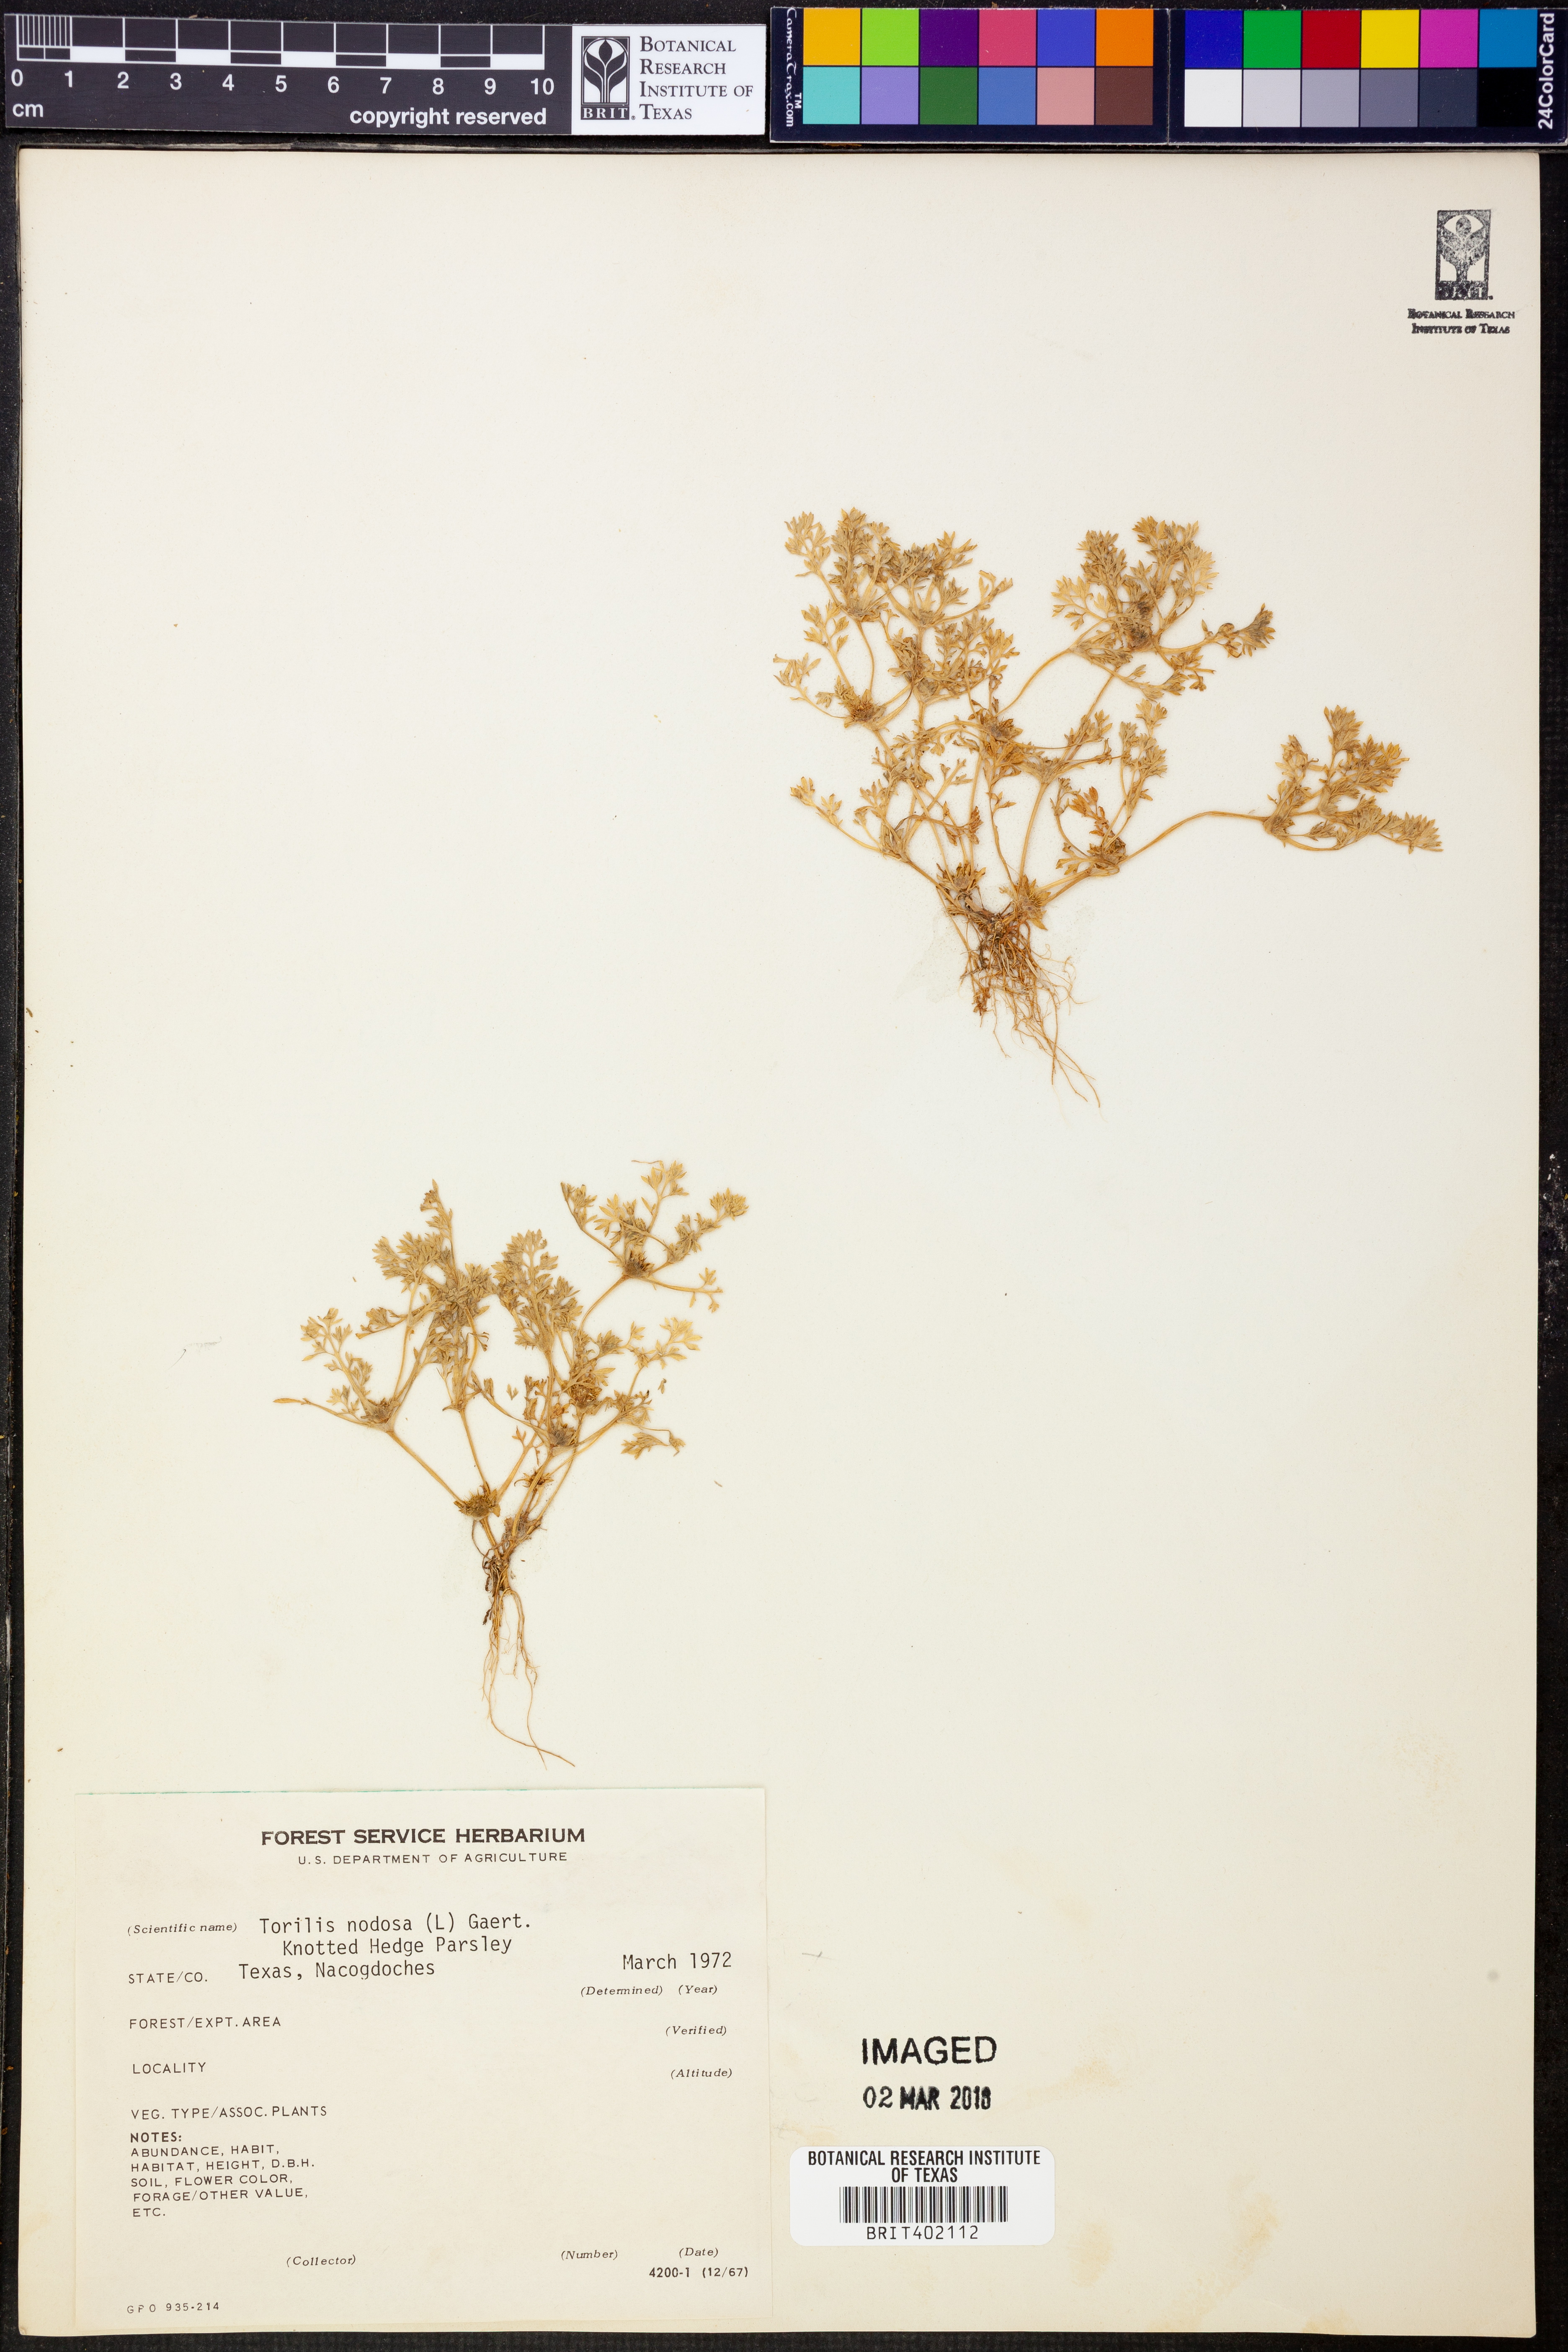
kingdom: Plantae
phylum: Tracheophyta
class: Magnoliopsida
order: Apiales
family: Apiaceae
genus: Torilis
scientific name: Torilis nodosa
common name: Knotted hedge-parsley
